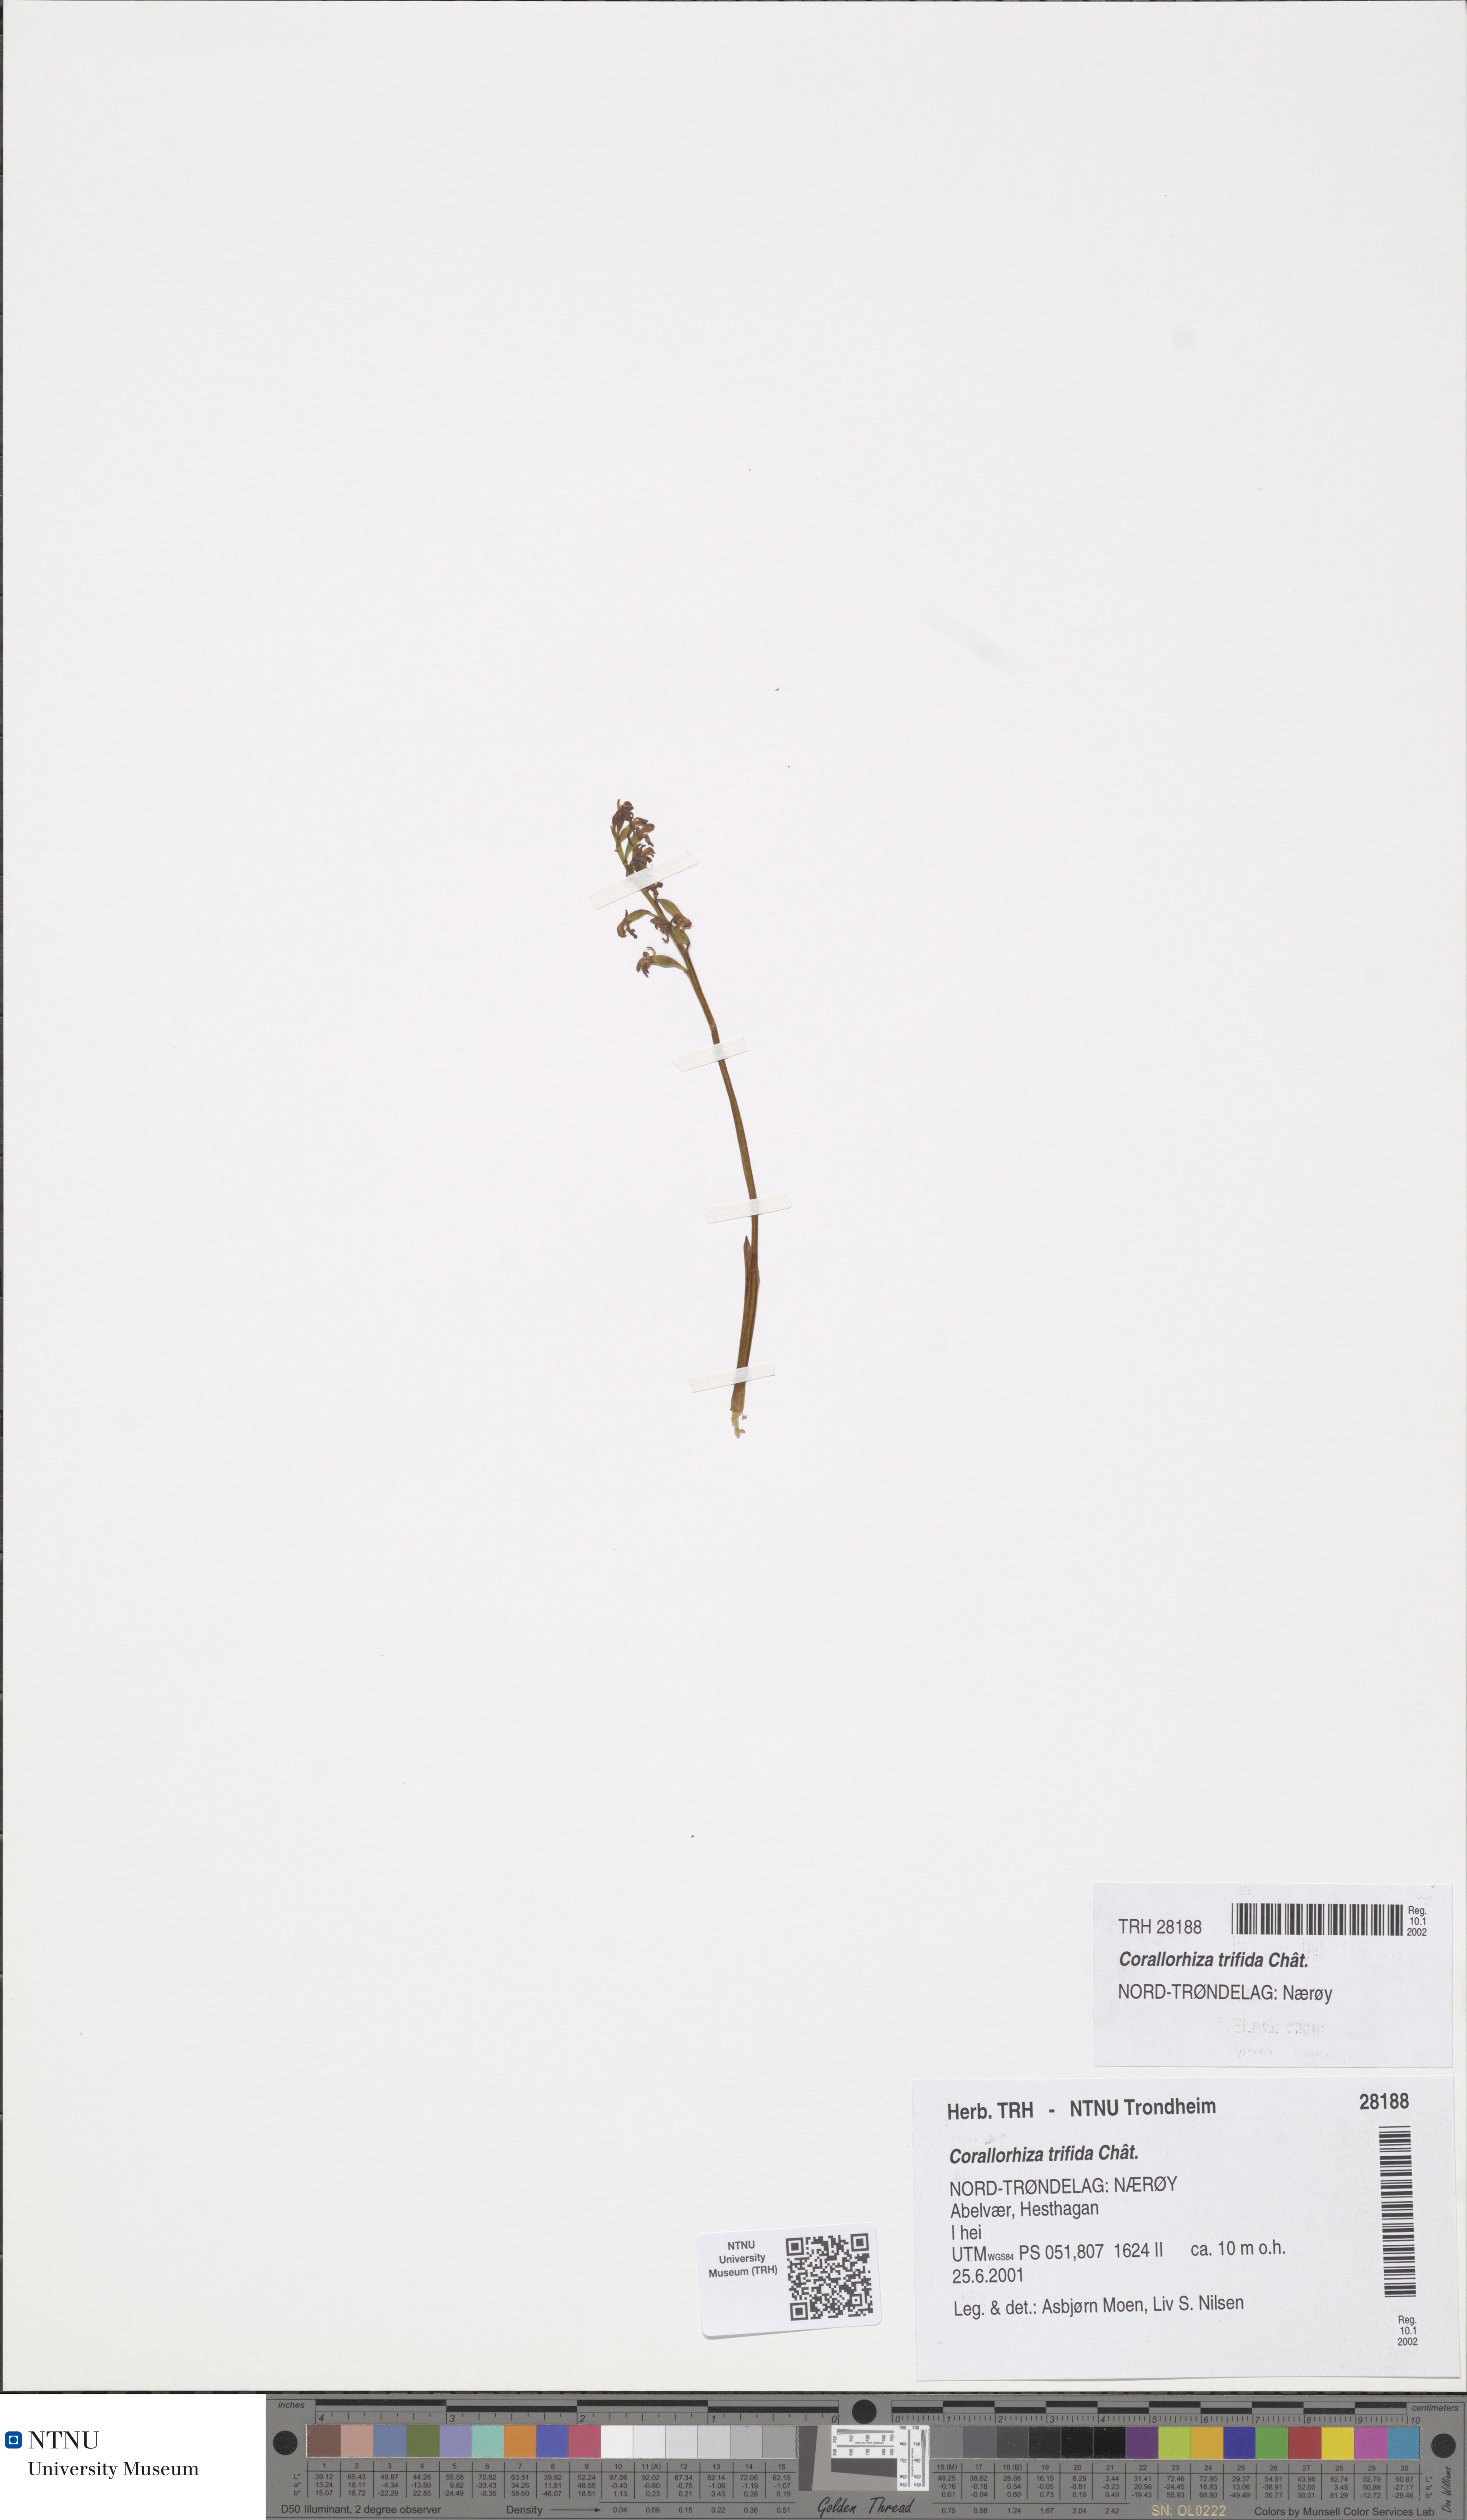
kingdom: Plantae
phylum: Tracheophyta
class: Liliopsida
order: Asparagales
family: Orchidaceae
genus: Corallorhiza
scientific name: Corallorhiza trifida
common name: Yellow coralroot
